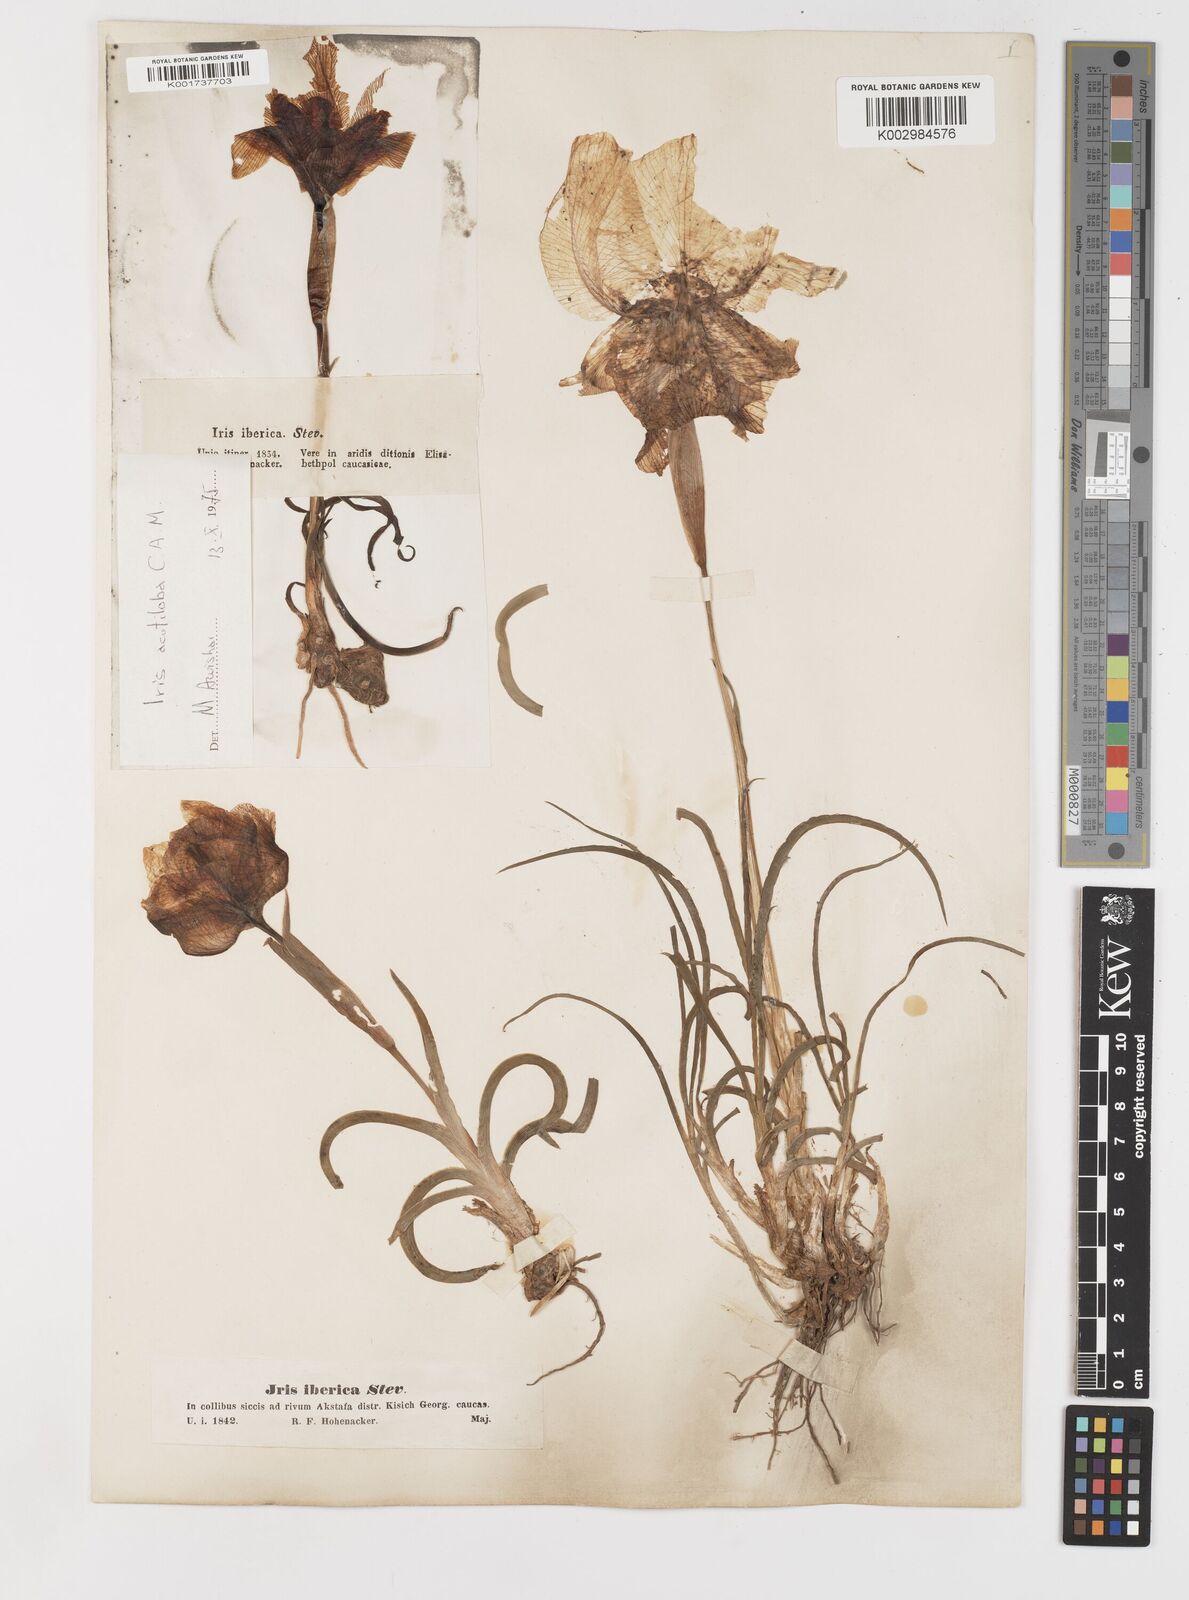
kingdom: Plantae
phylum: Tracheophyta
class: Liliopsida
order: Asparagales
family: Iridaceae
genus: Iris
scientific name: Iris iberica
